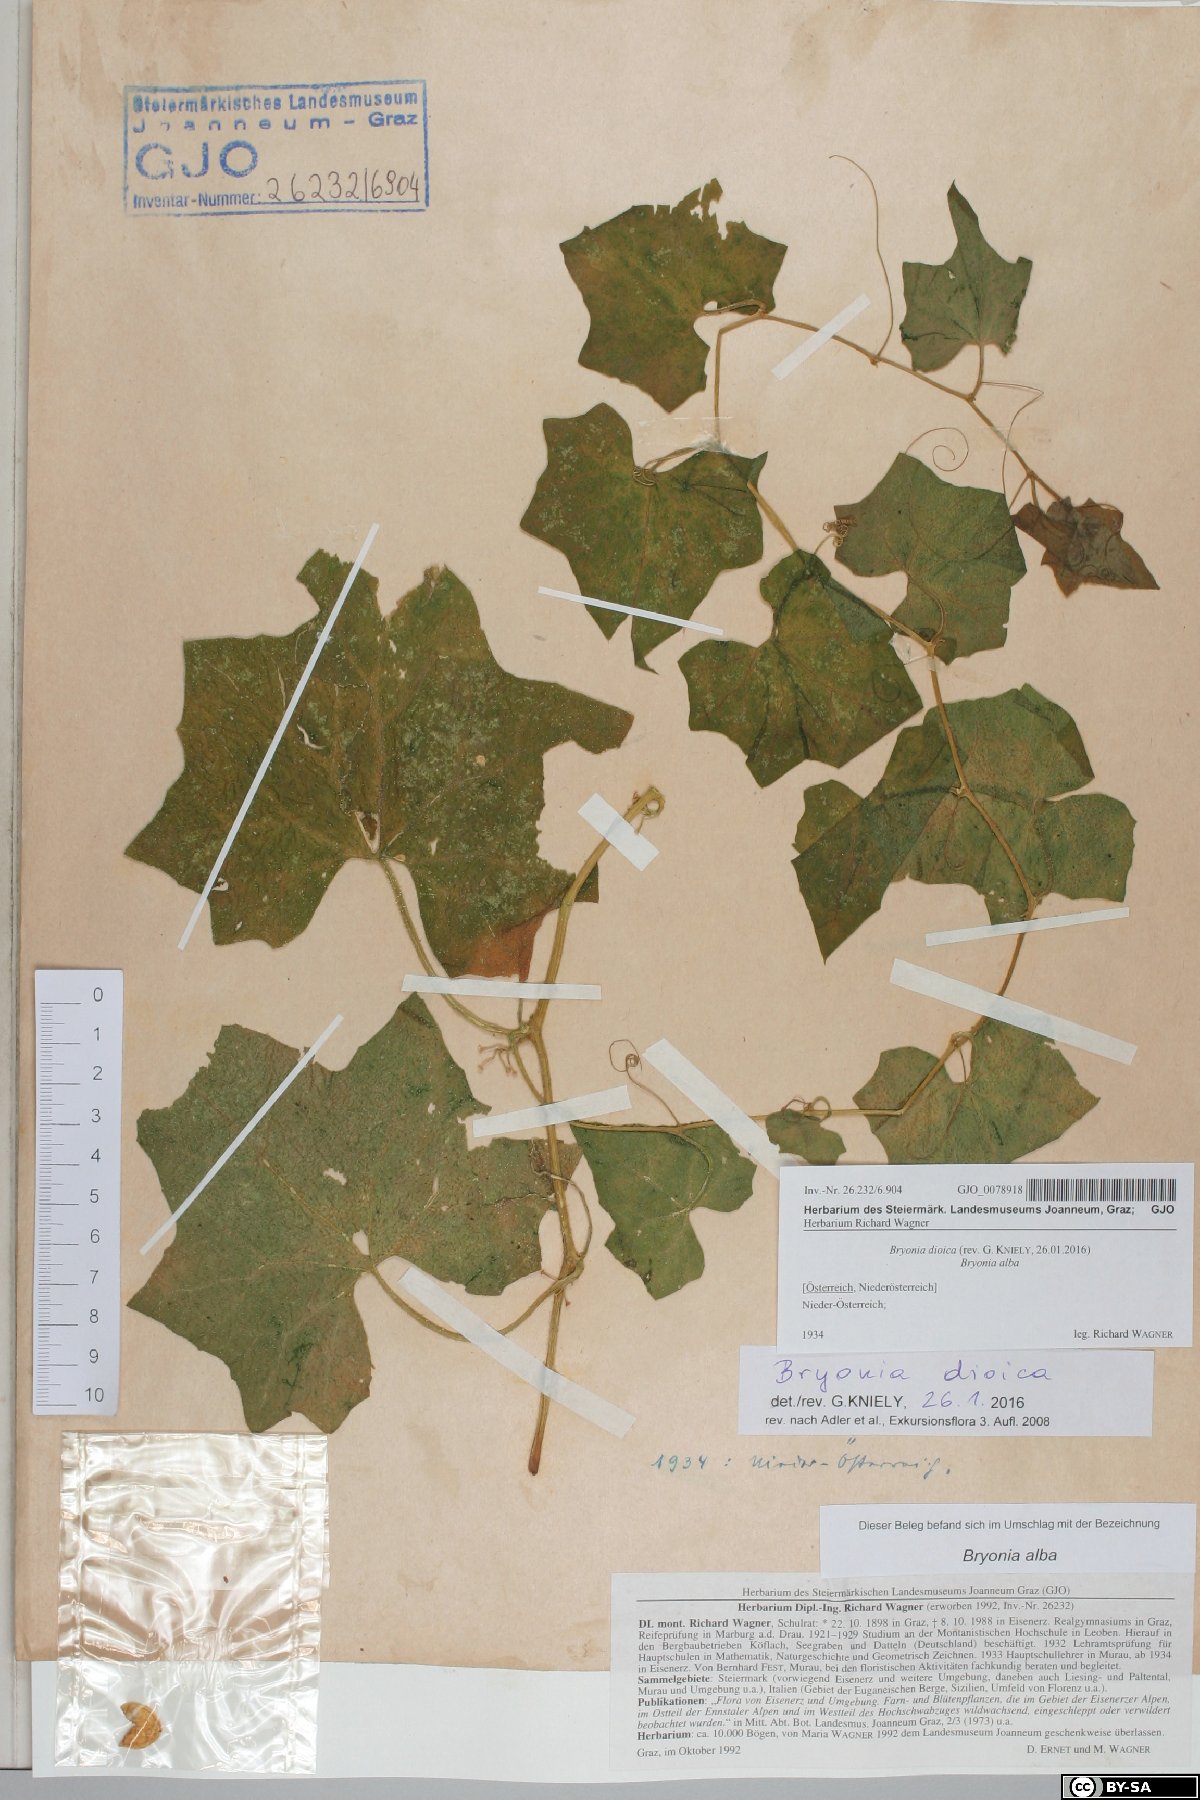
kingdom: Plantae
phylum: Tracheophyta
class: Magnoliopsida
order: Cucurbitales
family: Cucurbitaceae
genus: Bryonia
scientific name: Bryonia dioica
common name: White bryony
